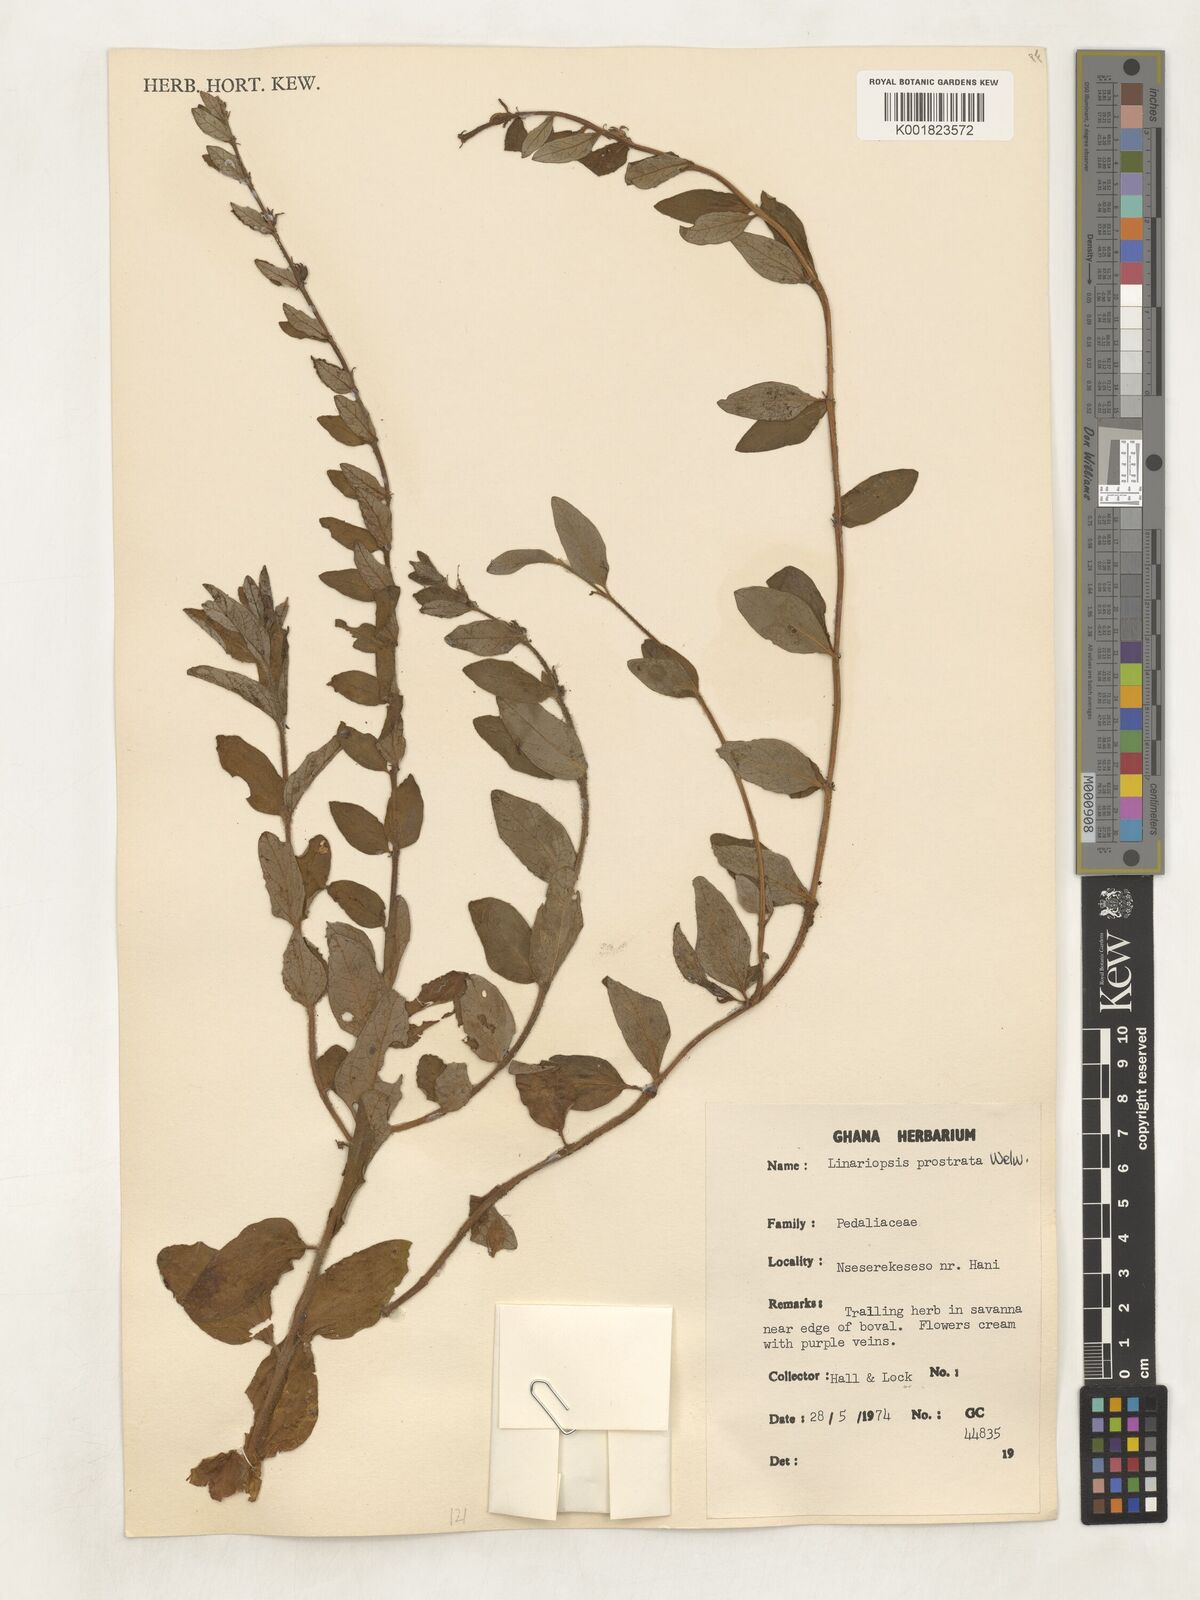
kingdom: Plantae
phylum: Tracheophyta
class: Magnoliopsida
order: Lamiales
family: Pedaliaceae
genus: Linariopsis
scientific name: Linariopsis prostrata
